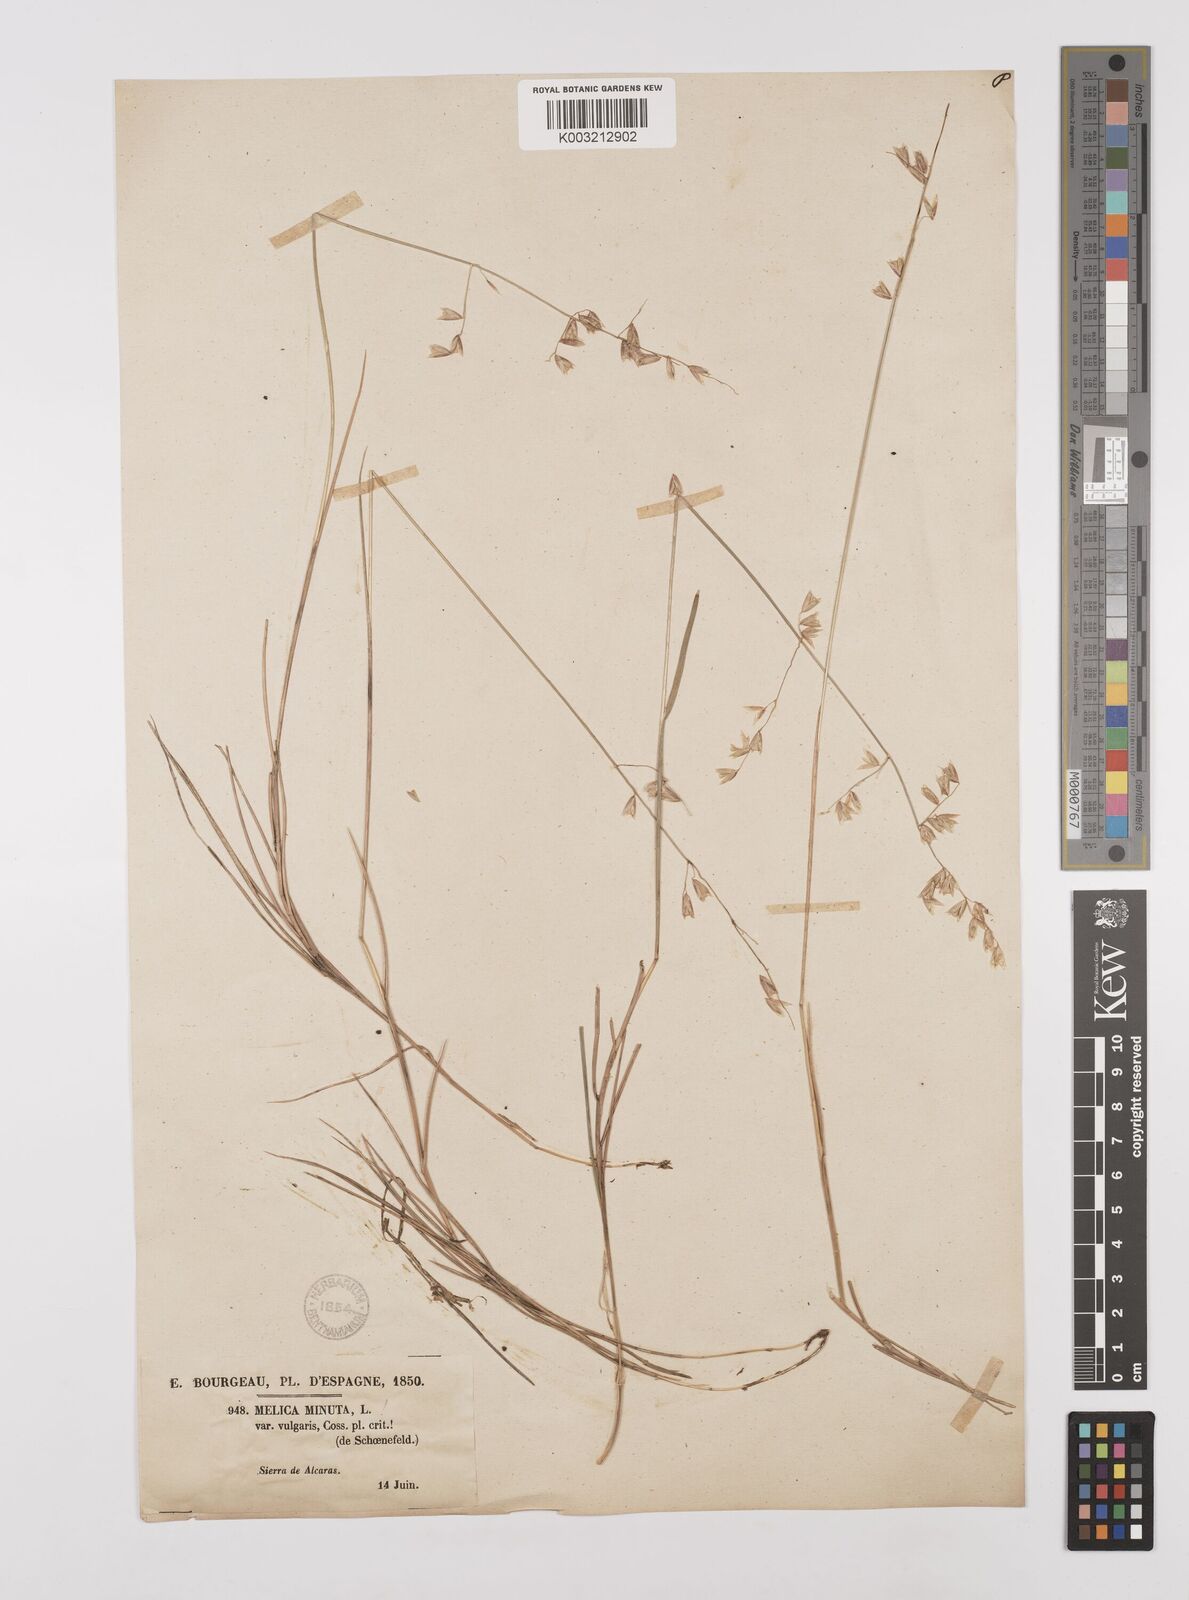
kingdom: Plantae
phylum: Tracheophyta
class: Liliopsida
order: Poales
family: Poaceae
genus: Melica
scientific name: Melica minuta
